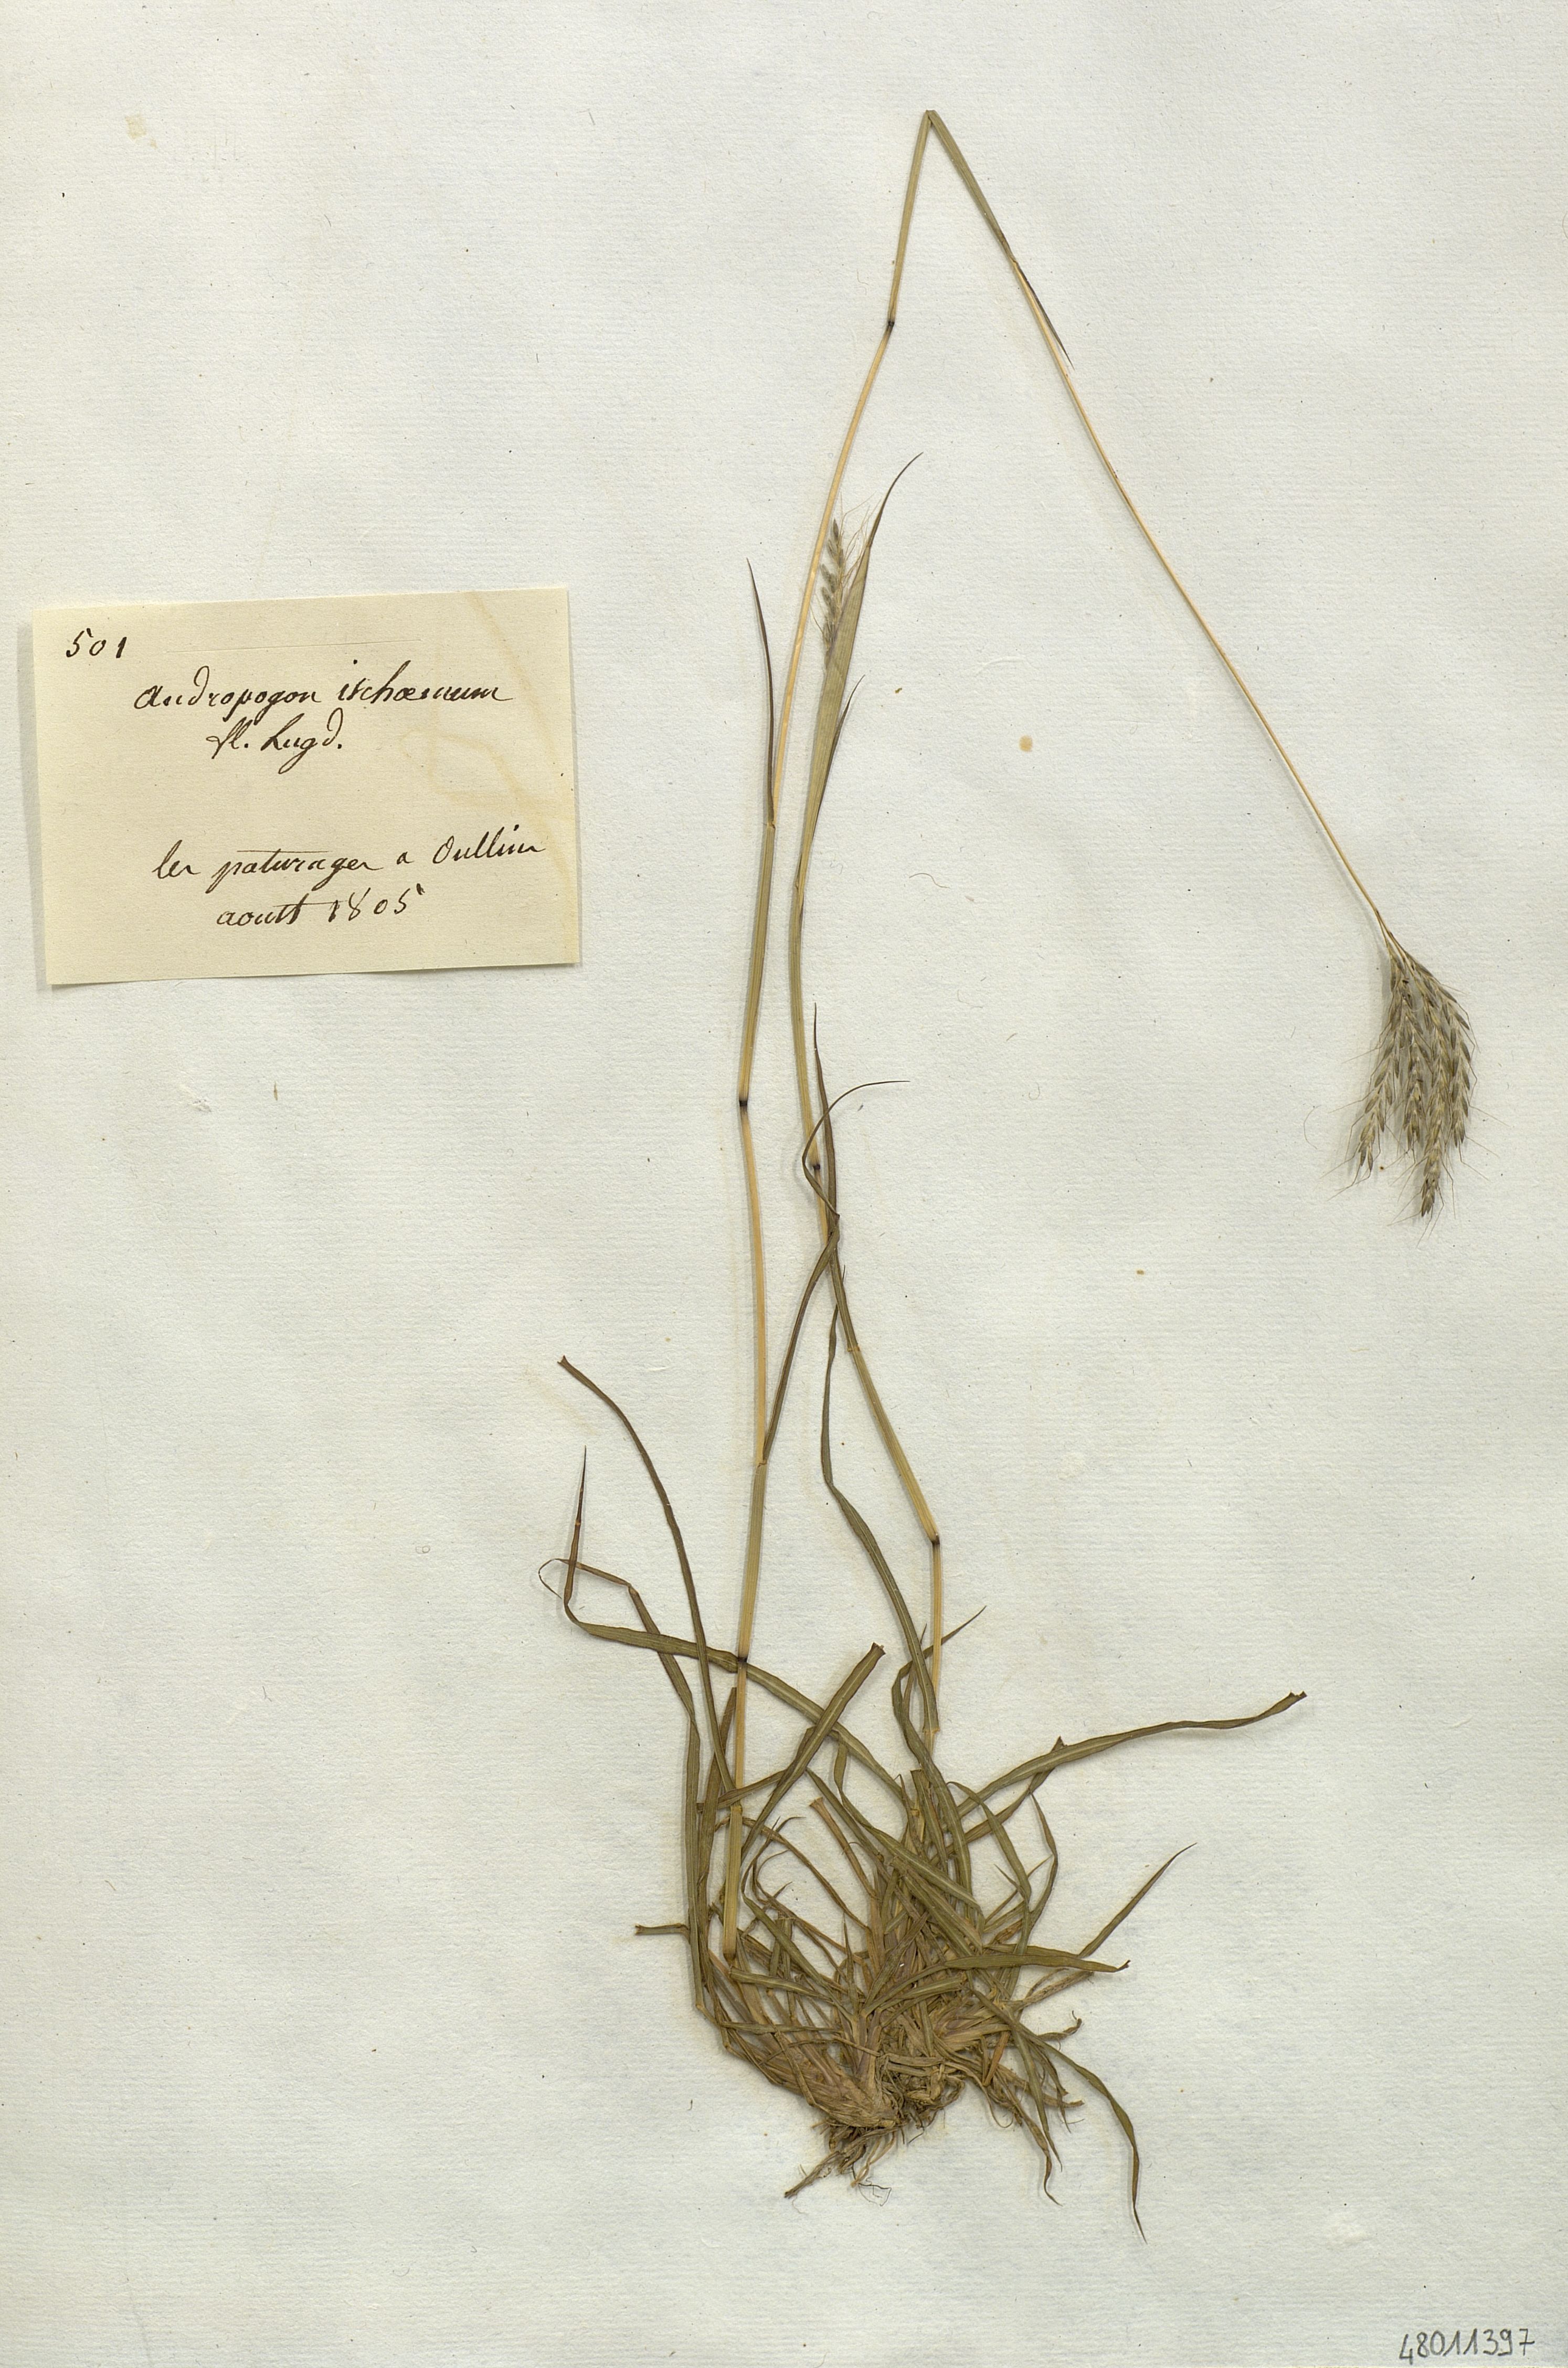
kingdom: Plantae
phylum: Tracheophyta
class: Liliopsida
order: Poales
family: Poaceae
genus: Andropogon
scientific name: Andropogon ischaemum
